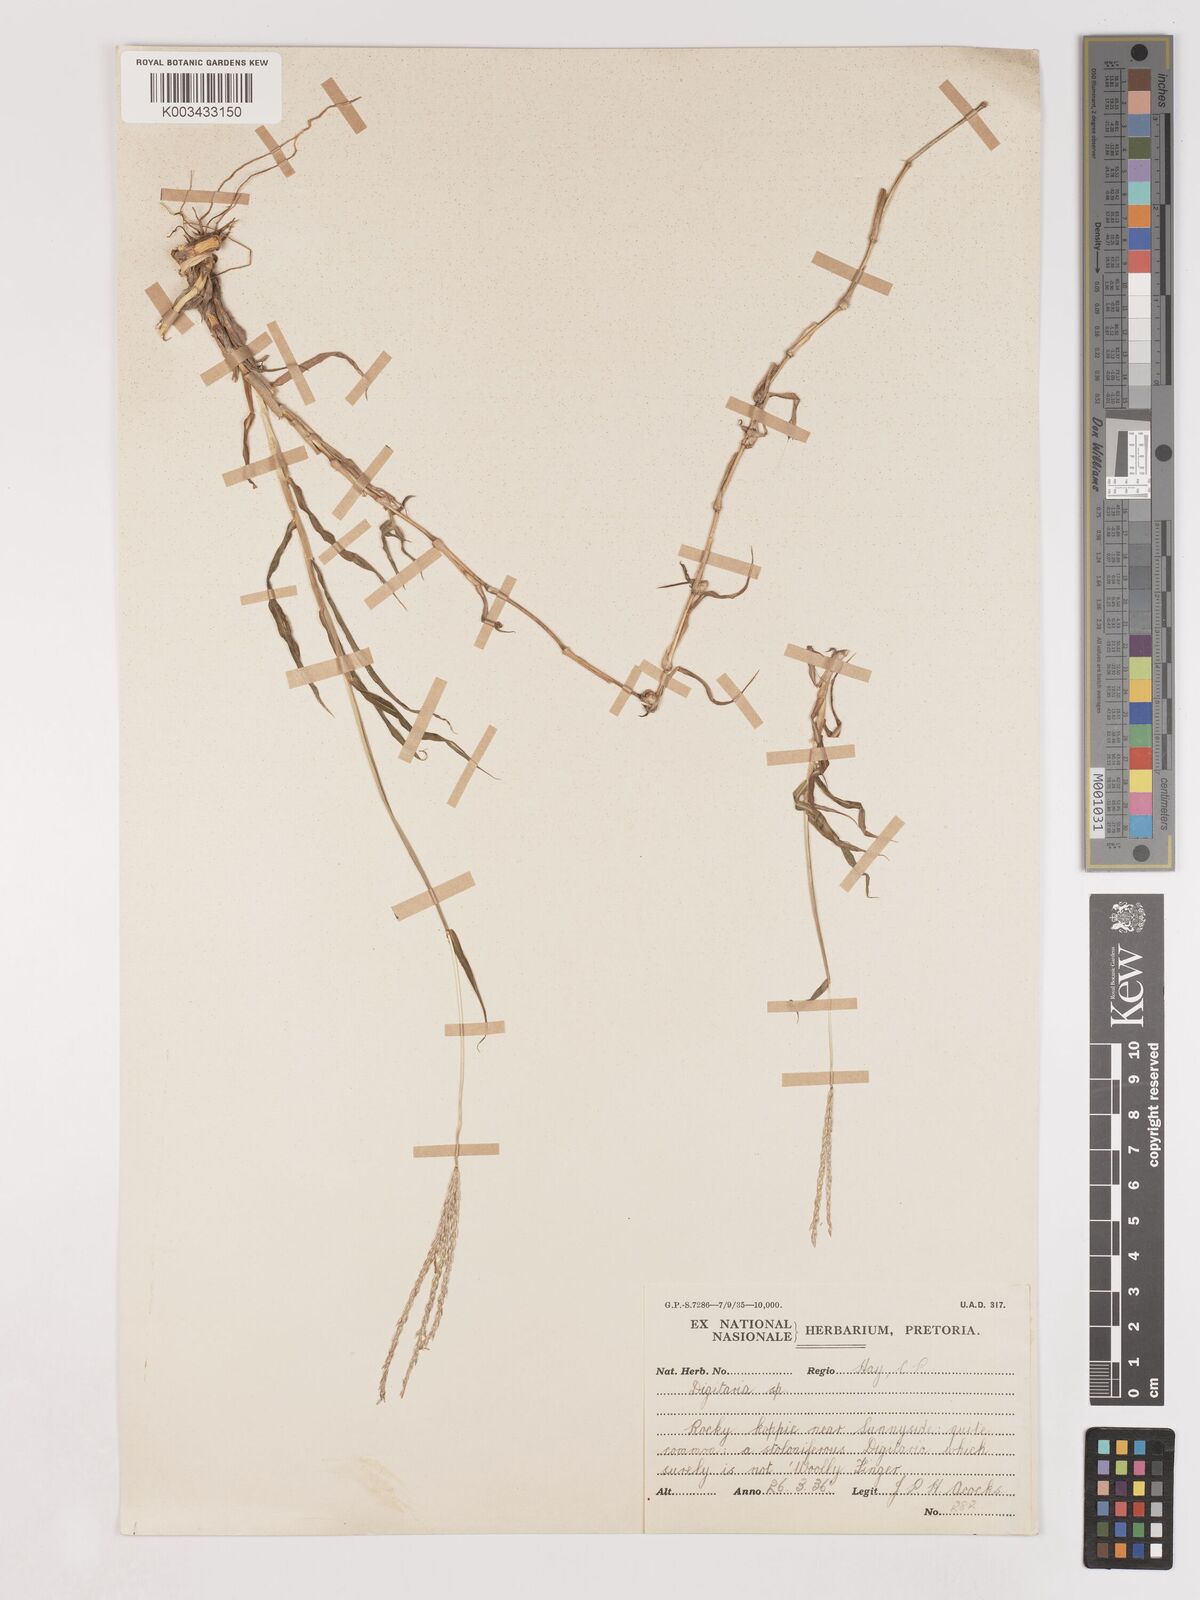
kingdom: Plantae
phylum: Tracheophyta
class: Liliopsida
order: Poales
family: Poaceae
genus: Digitaria
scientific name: Digitaria polyphylla
